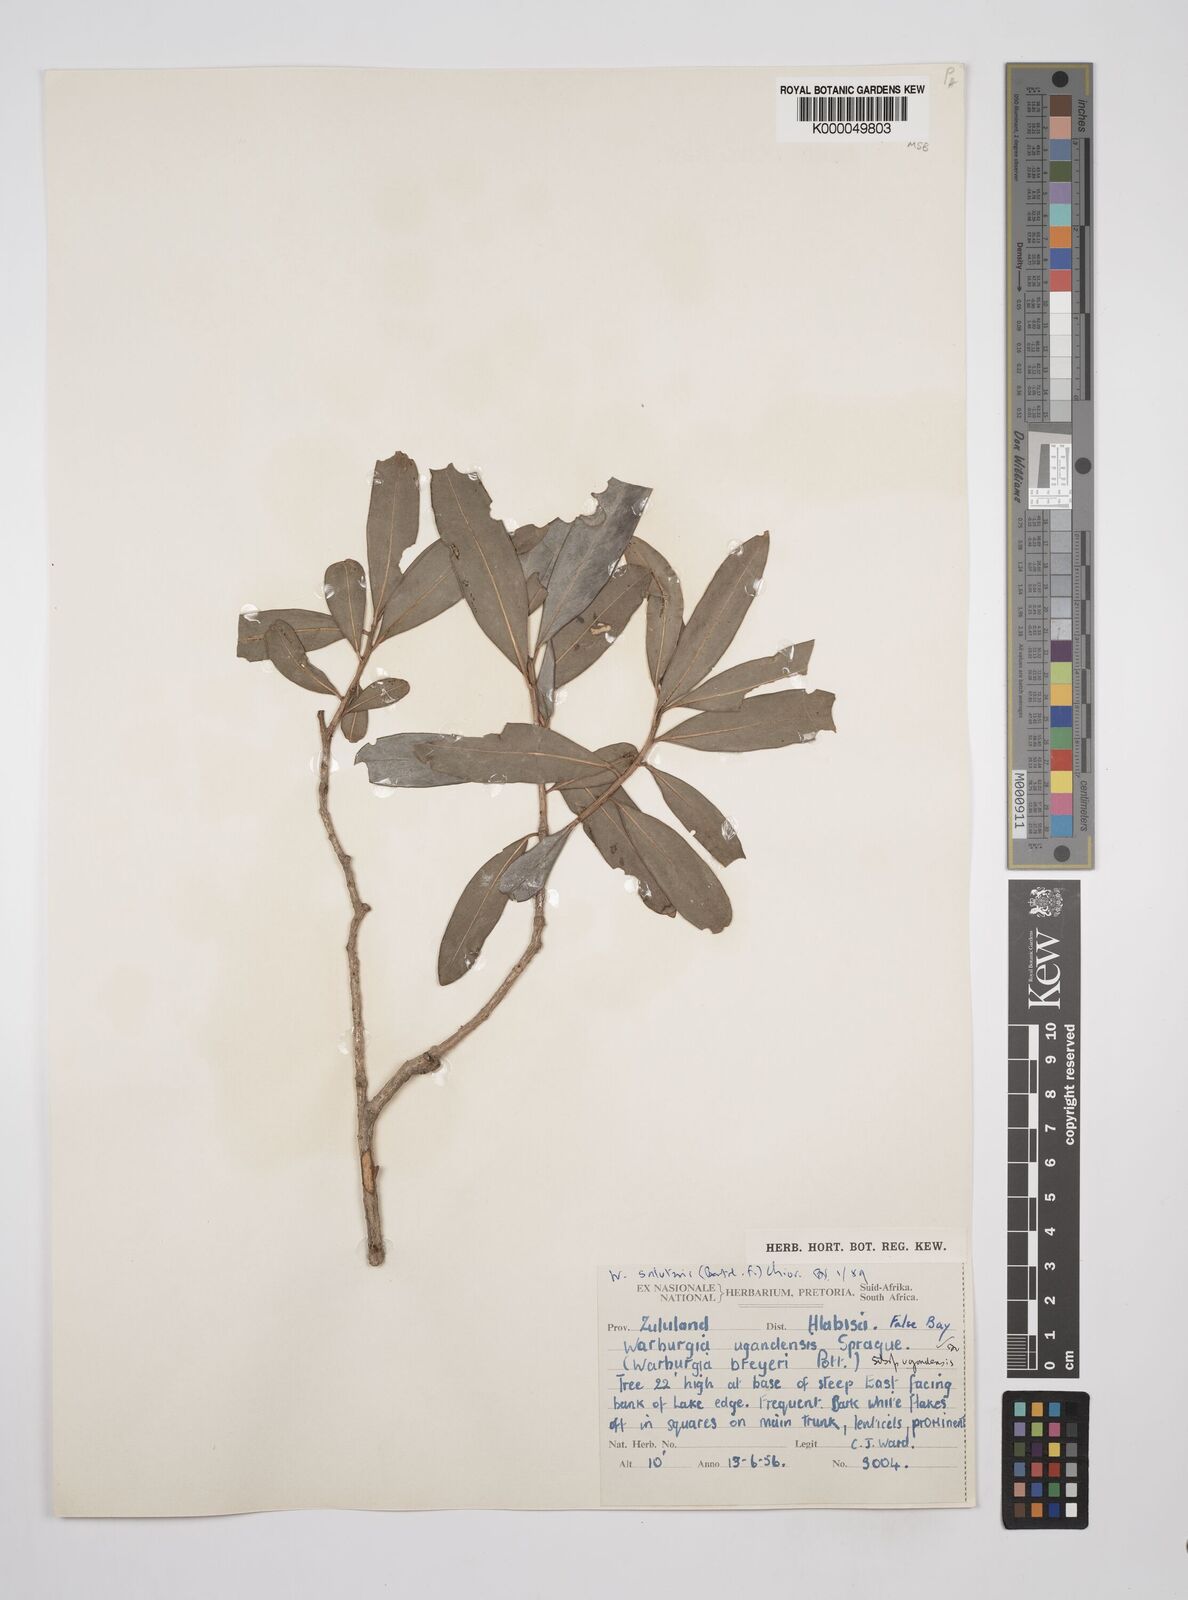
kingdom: Plantae
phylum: Tracheophyta
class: Magnoliopsida
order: Canellales
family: Canellaceae
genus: Warburgia
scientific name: Warburgia salutaris
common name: Pepper bark tree
